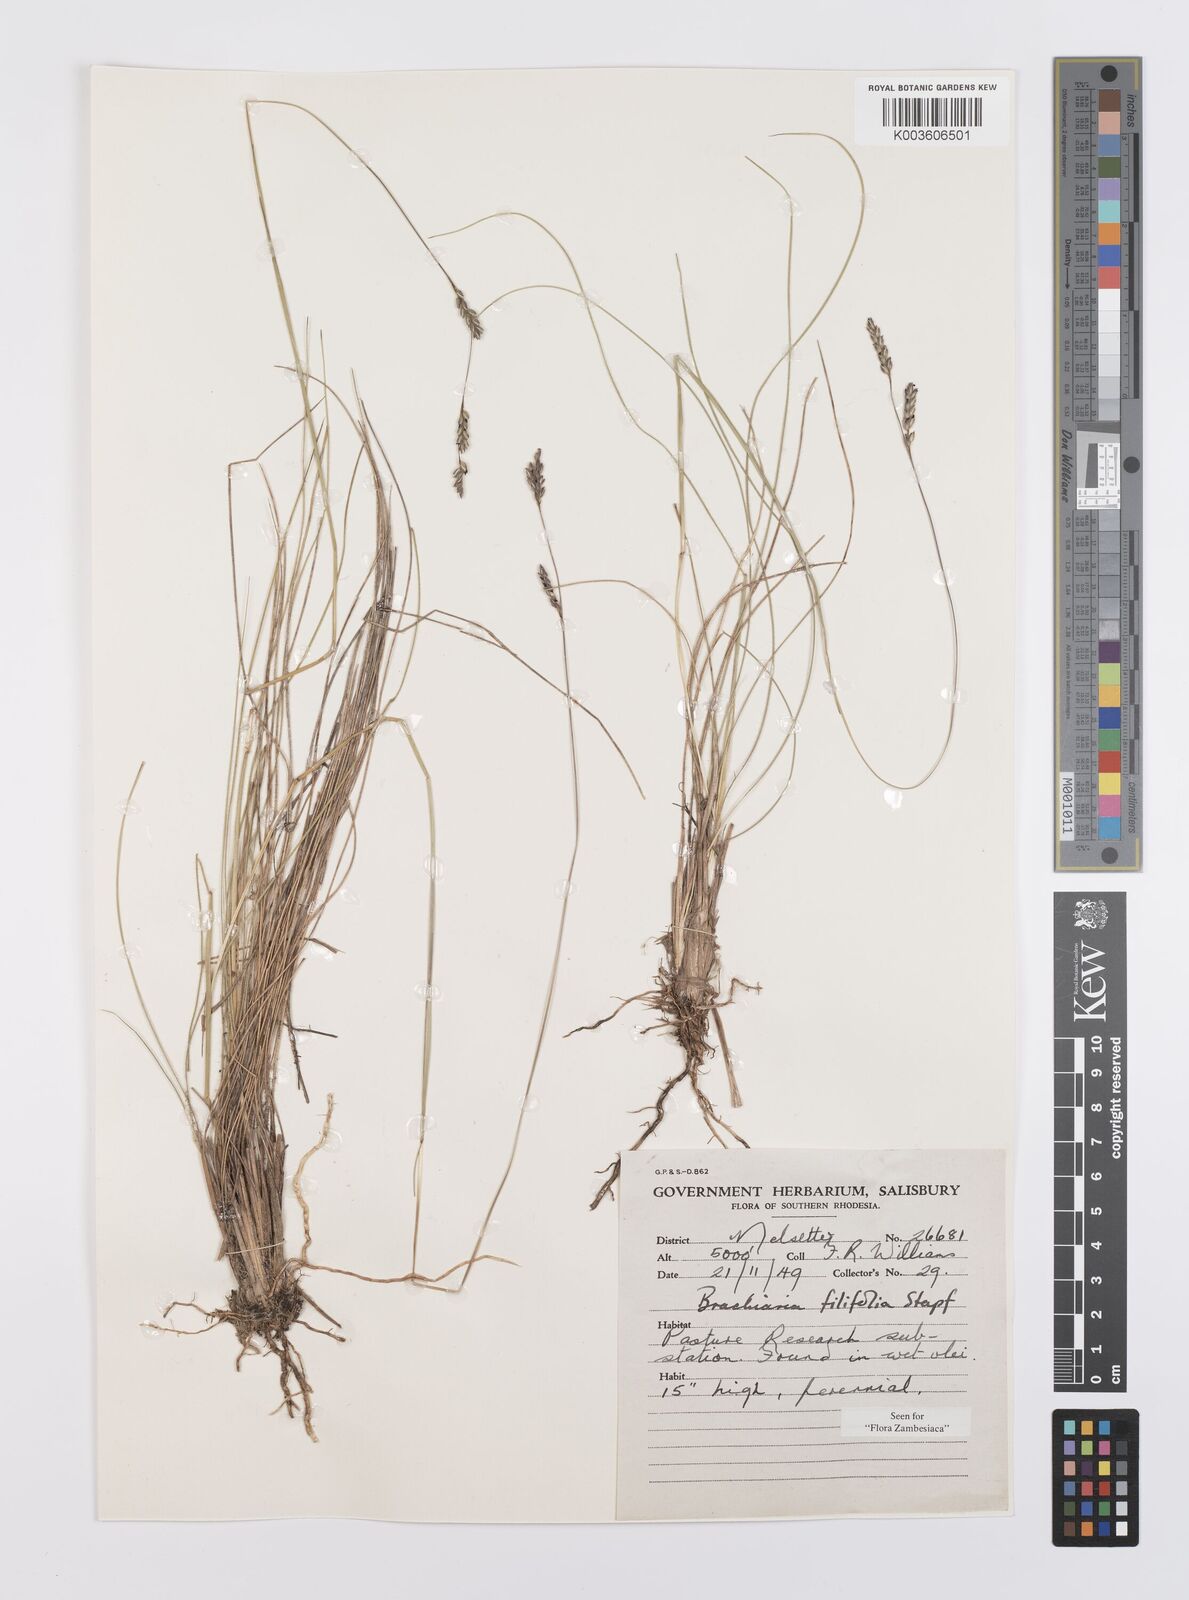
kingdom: Plantae
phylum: Tracheophyta
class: Liliopsida
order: Poales
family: Poaceae
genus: Urochloa
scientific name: Urochloa subulifolia
